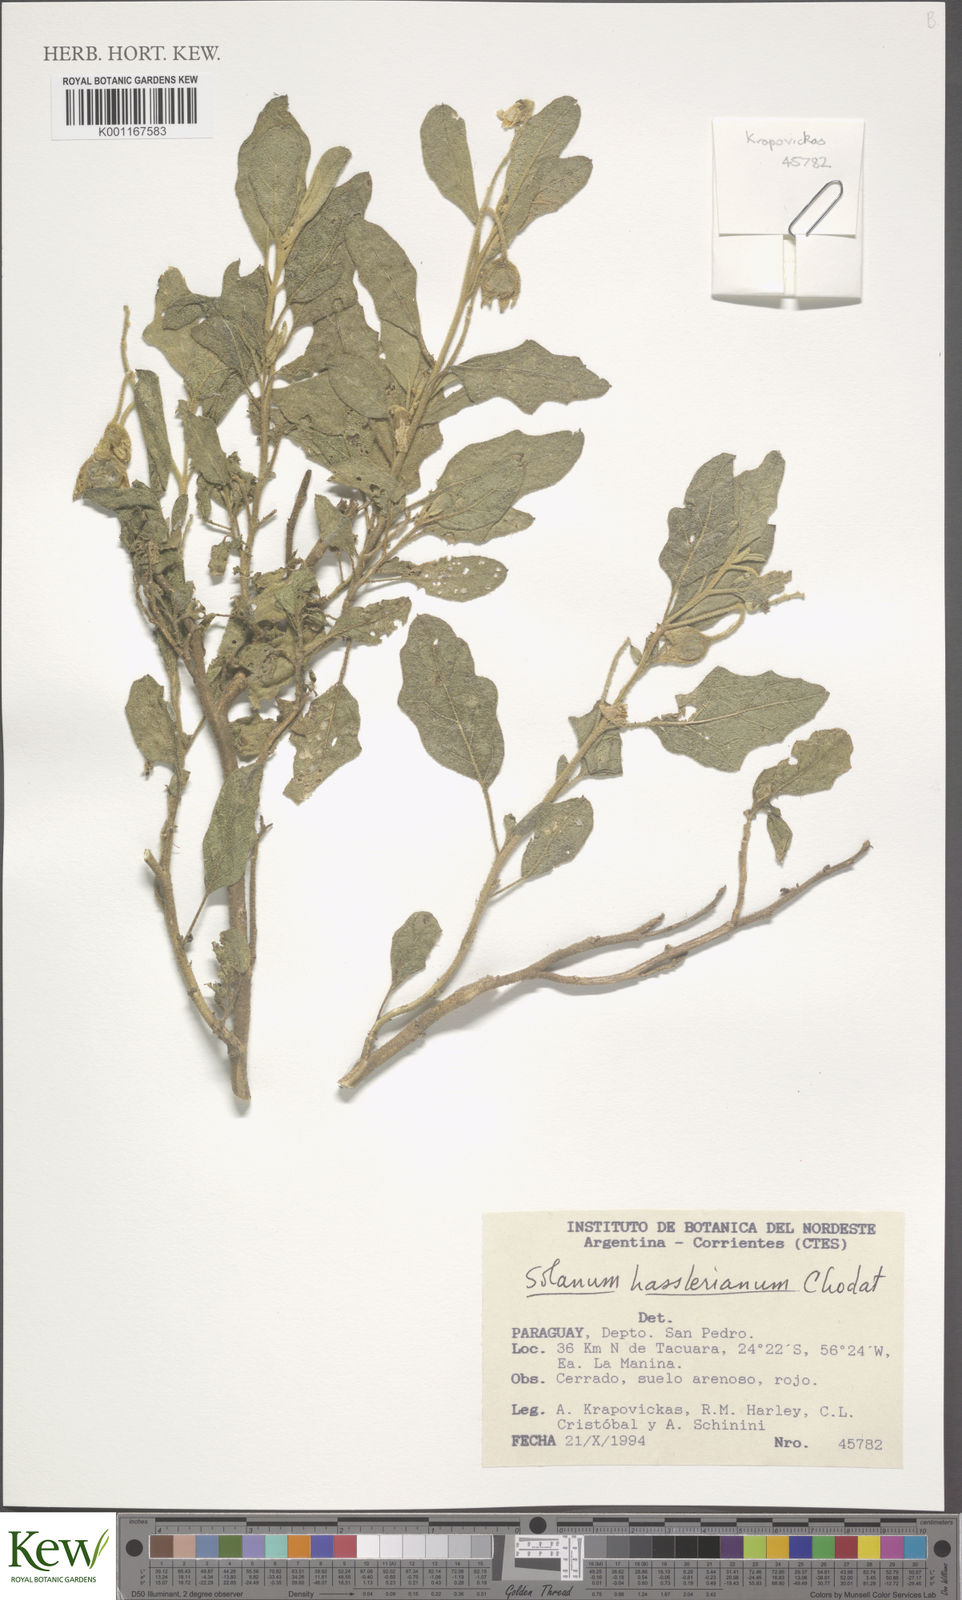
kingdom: Plantae
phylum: Tracheophyta
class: Magnoliopsida
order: Solanales
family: Solanaceae
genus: Solanum
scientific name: Solanum hasslerianum
